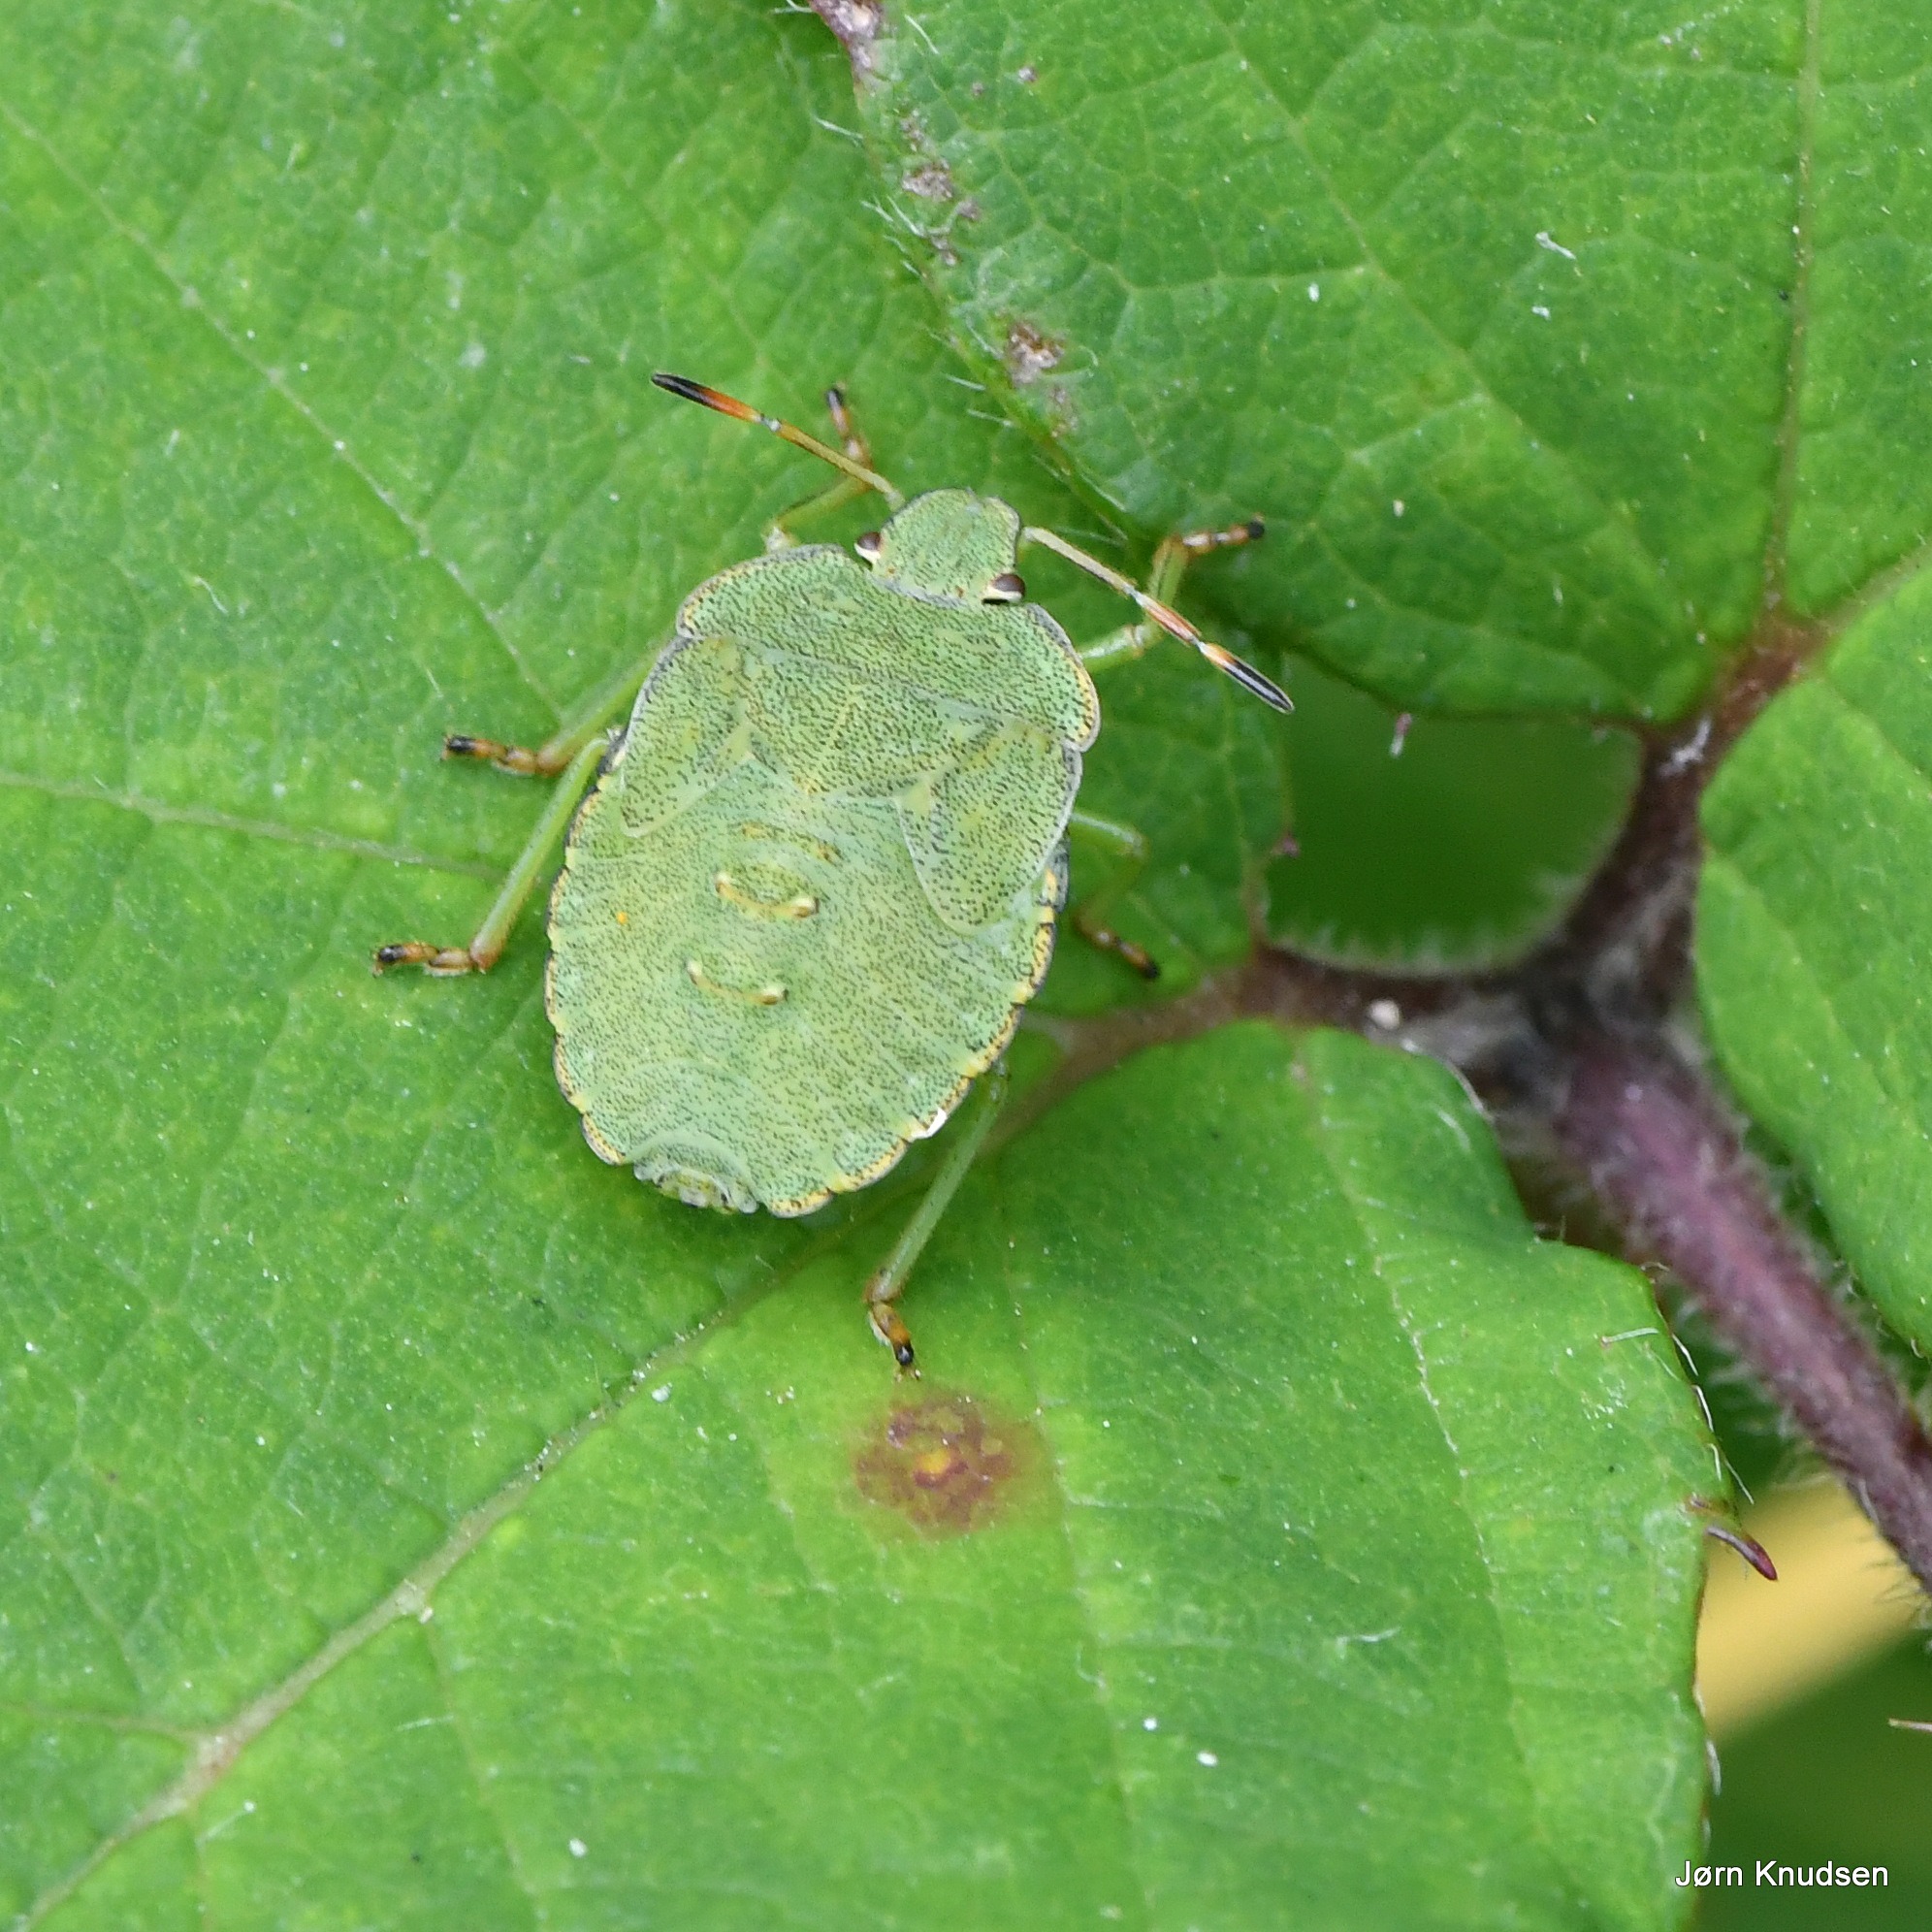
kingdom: Animalia
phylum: Arthropoda
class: Insecta
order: Hemiptera
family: Pentatomidae
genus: Palomena
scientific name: Palomena prasina
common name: Grøn bredtæge
